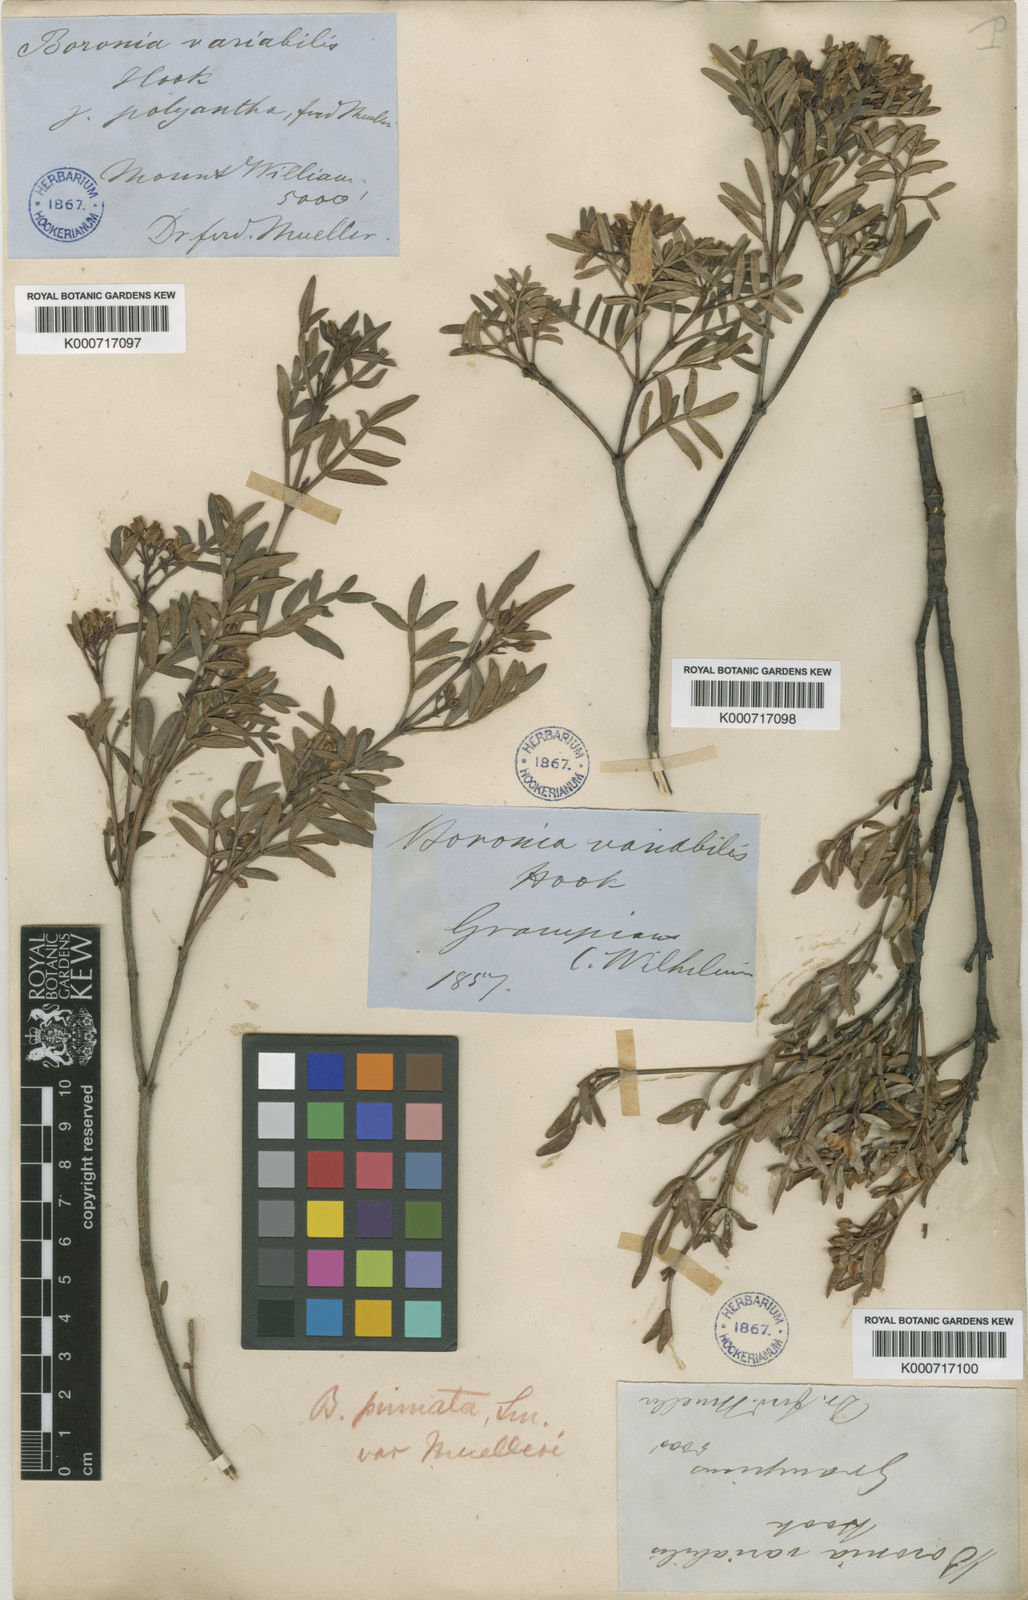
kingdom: Plantae
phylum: Tracheophyta
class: Magnoliopsida
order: Sapindales
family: Rutaceae
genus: Boronia
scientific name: Boronia latipinna
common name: Grampians boronia
